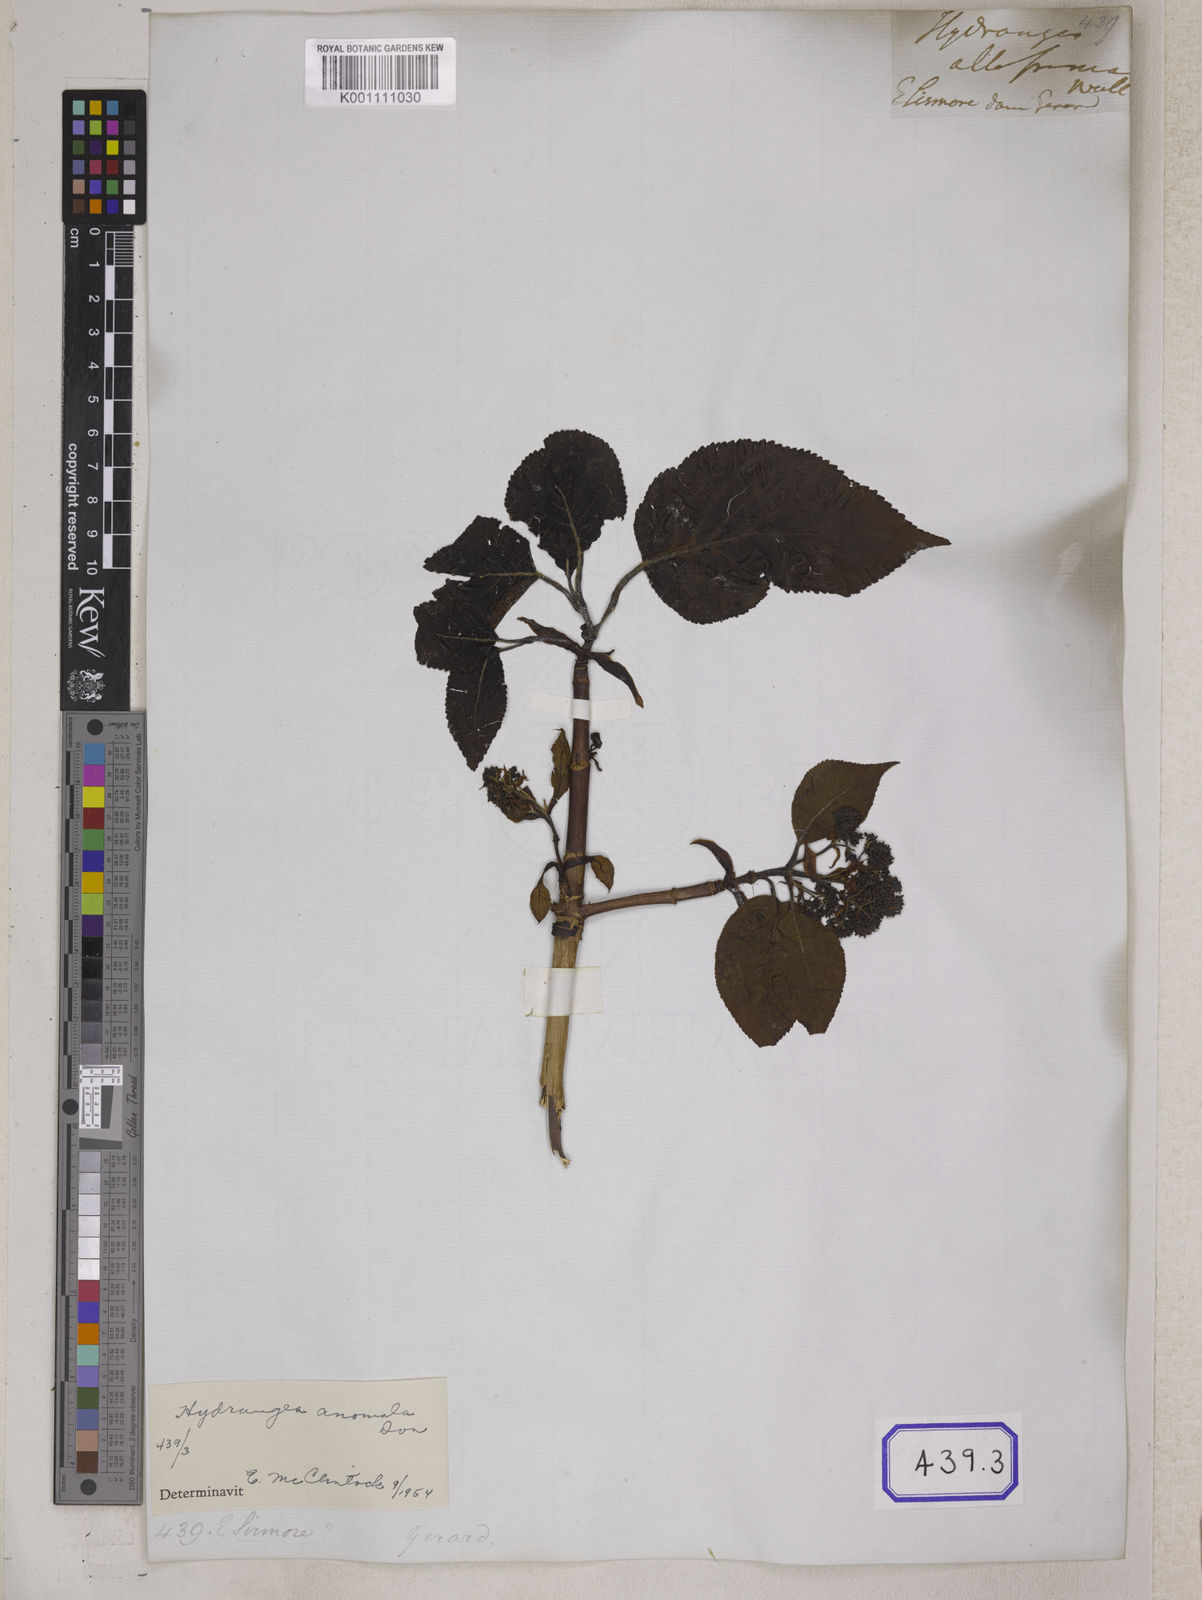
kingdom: Plantae
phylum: Tracheophyta
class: Magnoliopsida
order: Cornales
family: Hydrangeaceae
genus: Hydrangea
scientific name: Hydrangea anomala
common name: Japanese climbing-hydrangea
